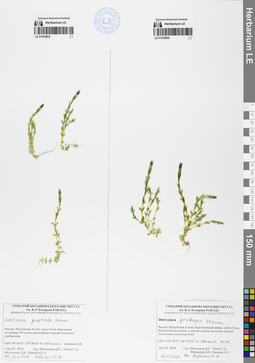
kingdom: Plantae
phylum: Tracheophyta
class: Magnoliopsida
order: Gentianales
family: Gentianaceae
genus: Gentiana
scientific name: Gentiana prostrata
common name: Moss gentian
